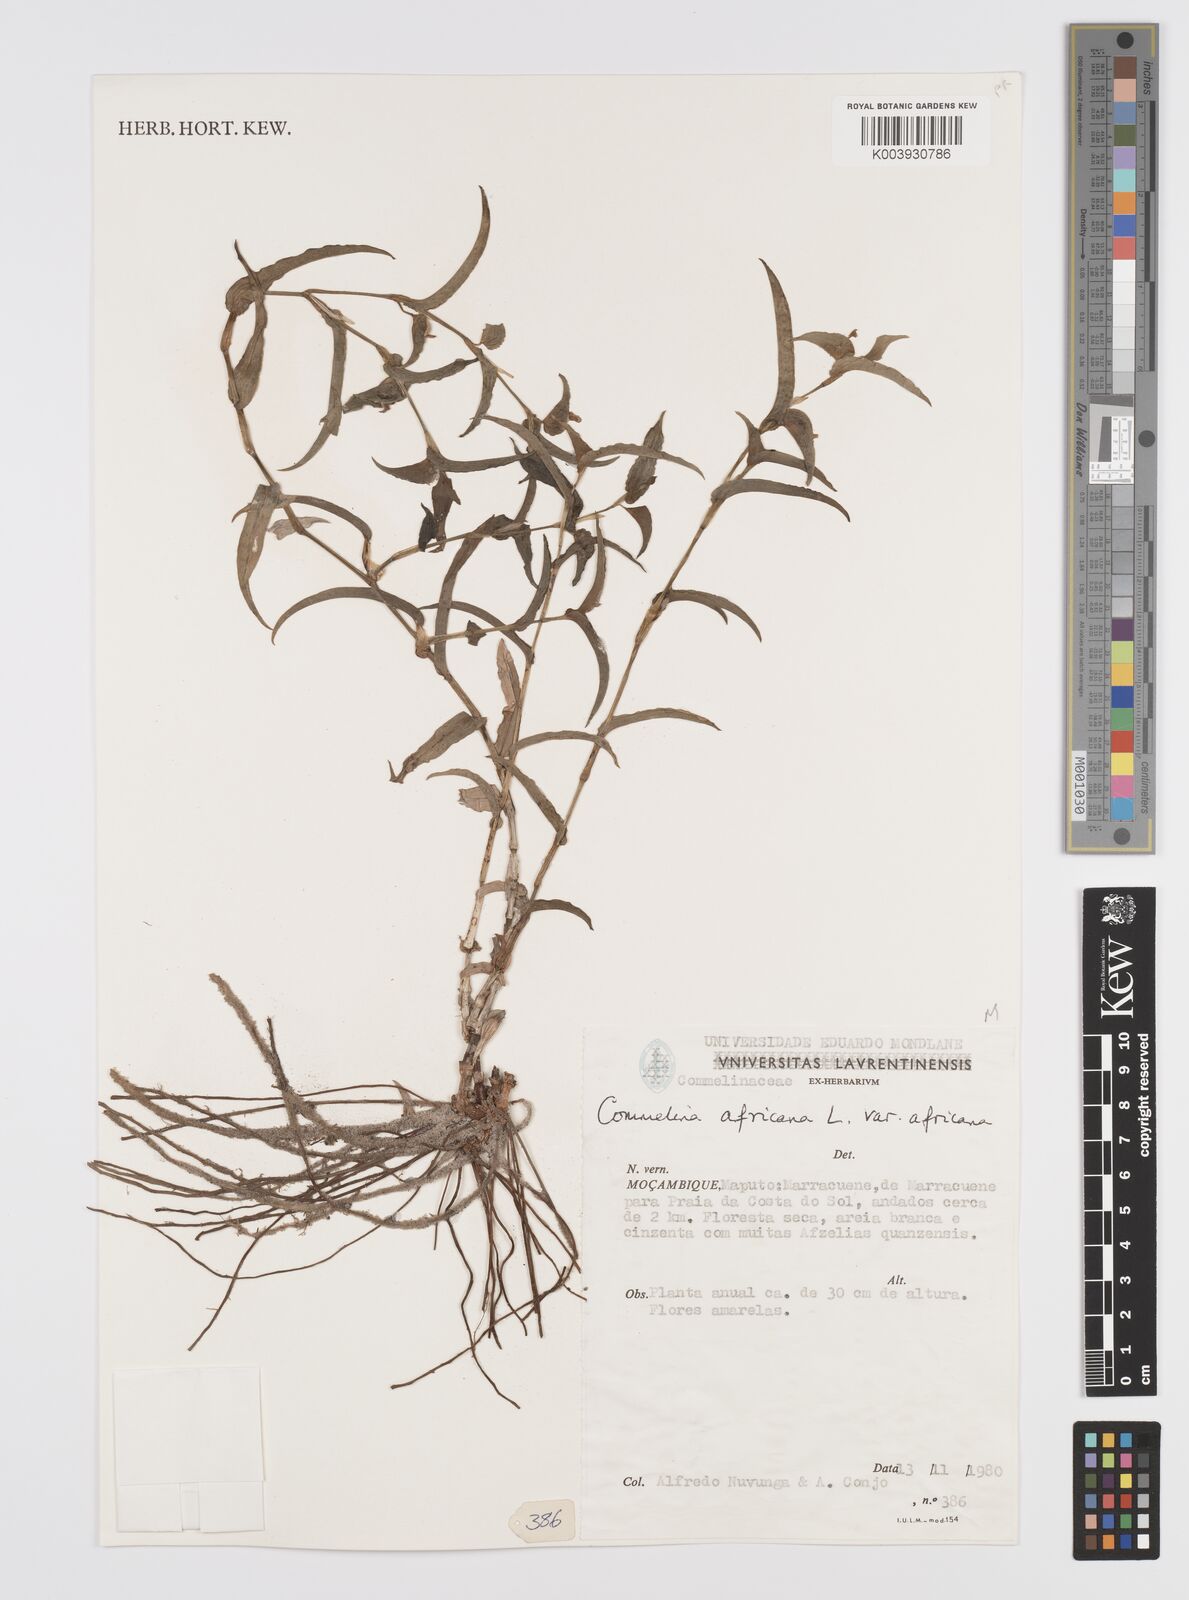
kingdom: Plantae
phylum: Tracheophyta
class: Liliopsida
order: Commelinales
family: Commelinaceae
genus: Commelina
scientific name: Commelina africana
